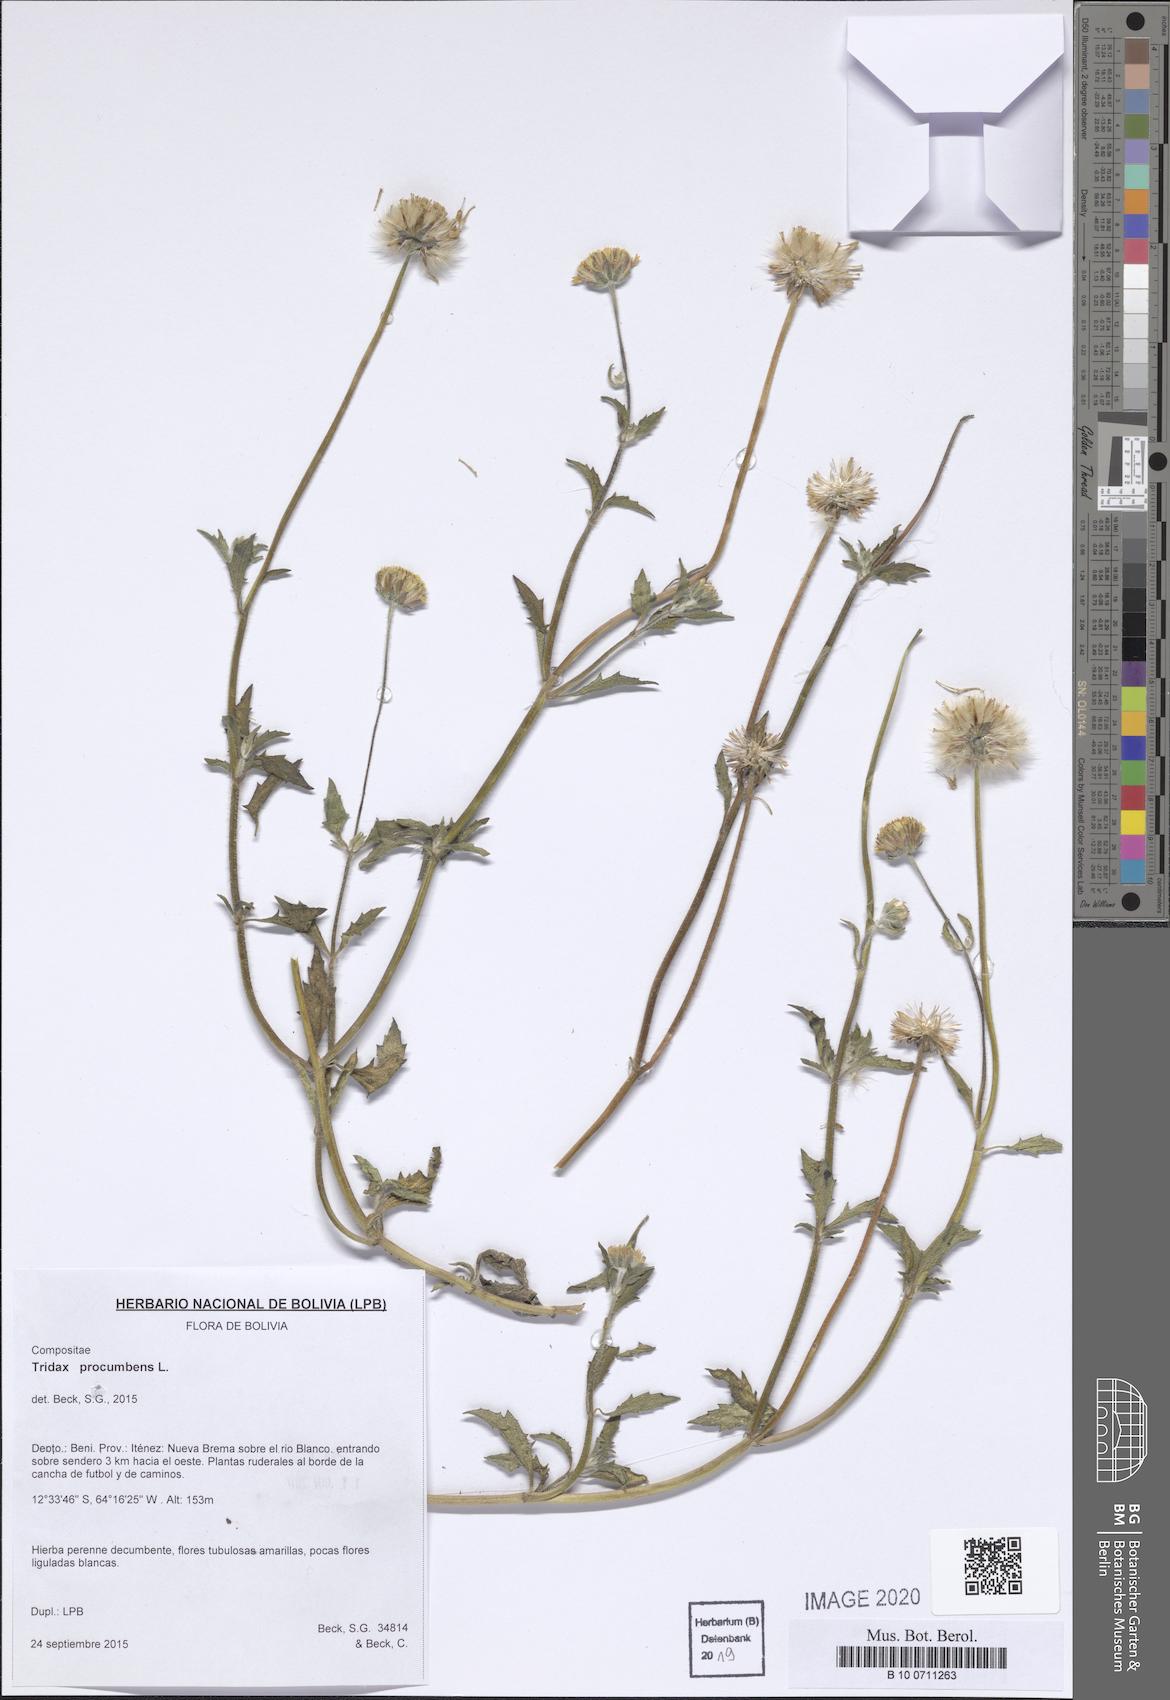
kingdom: Plantae
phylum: Tracheophyta
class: Magnoliopsida
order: Asterales
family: Asteraceae
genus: Tridax
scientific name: Tridax procumbens
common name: Coatbuttons
